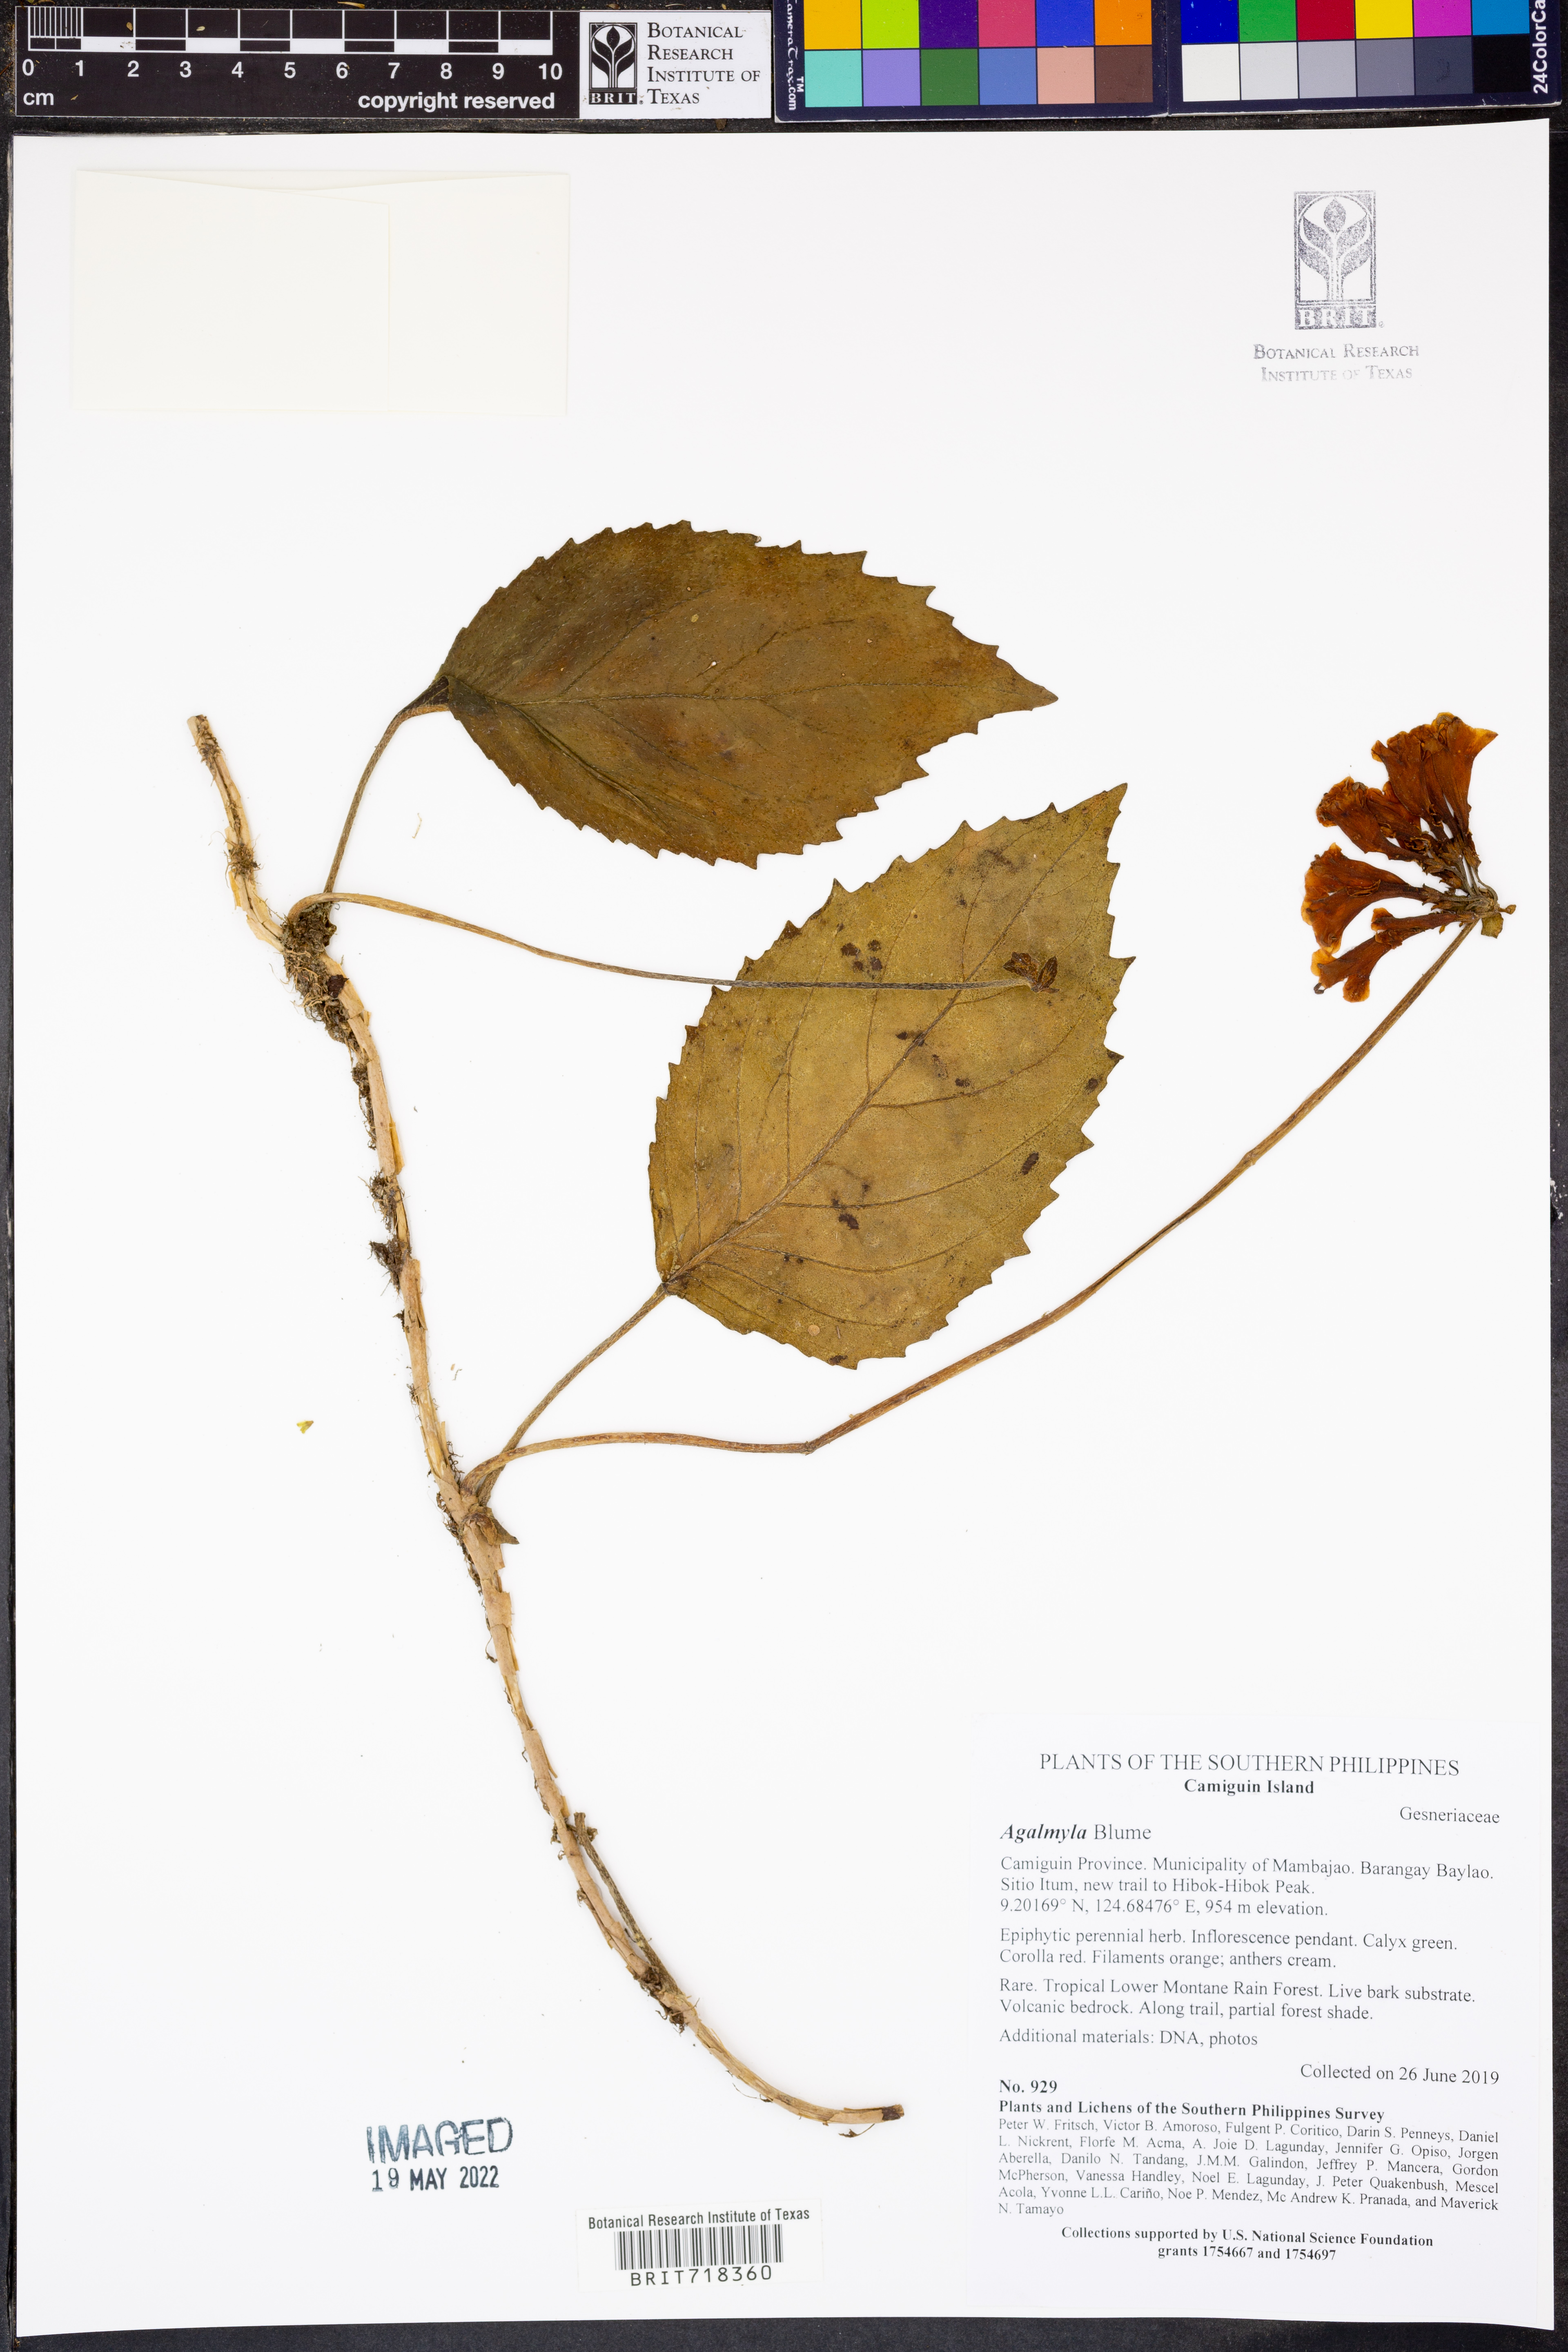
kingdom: Plantae
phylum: Tracheophyta
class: Magnoliopsida
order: Lamiales
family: Gesneriaceae
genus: Agalmyla
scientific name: Agalmyla
